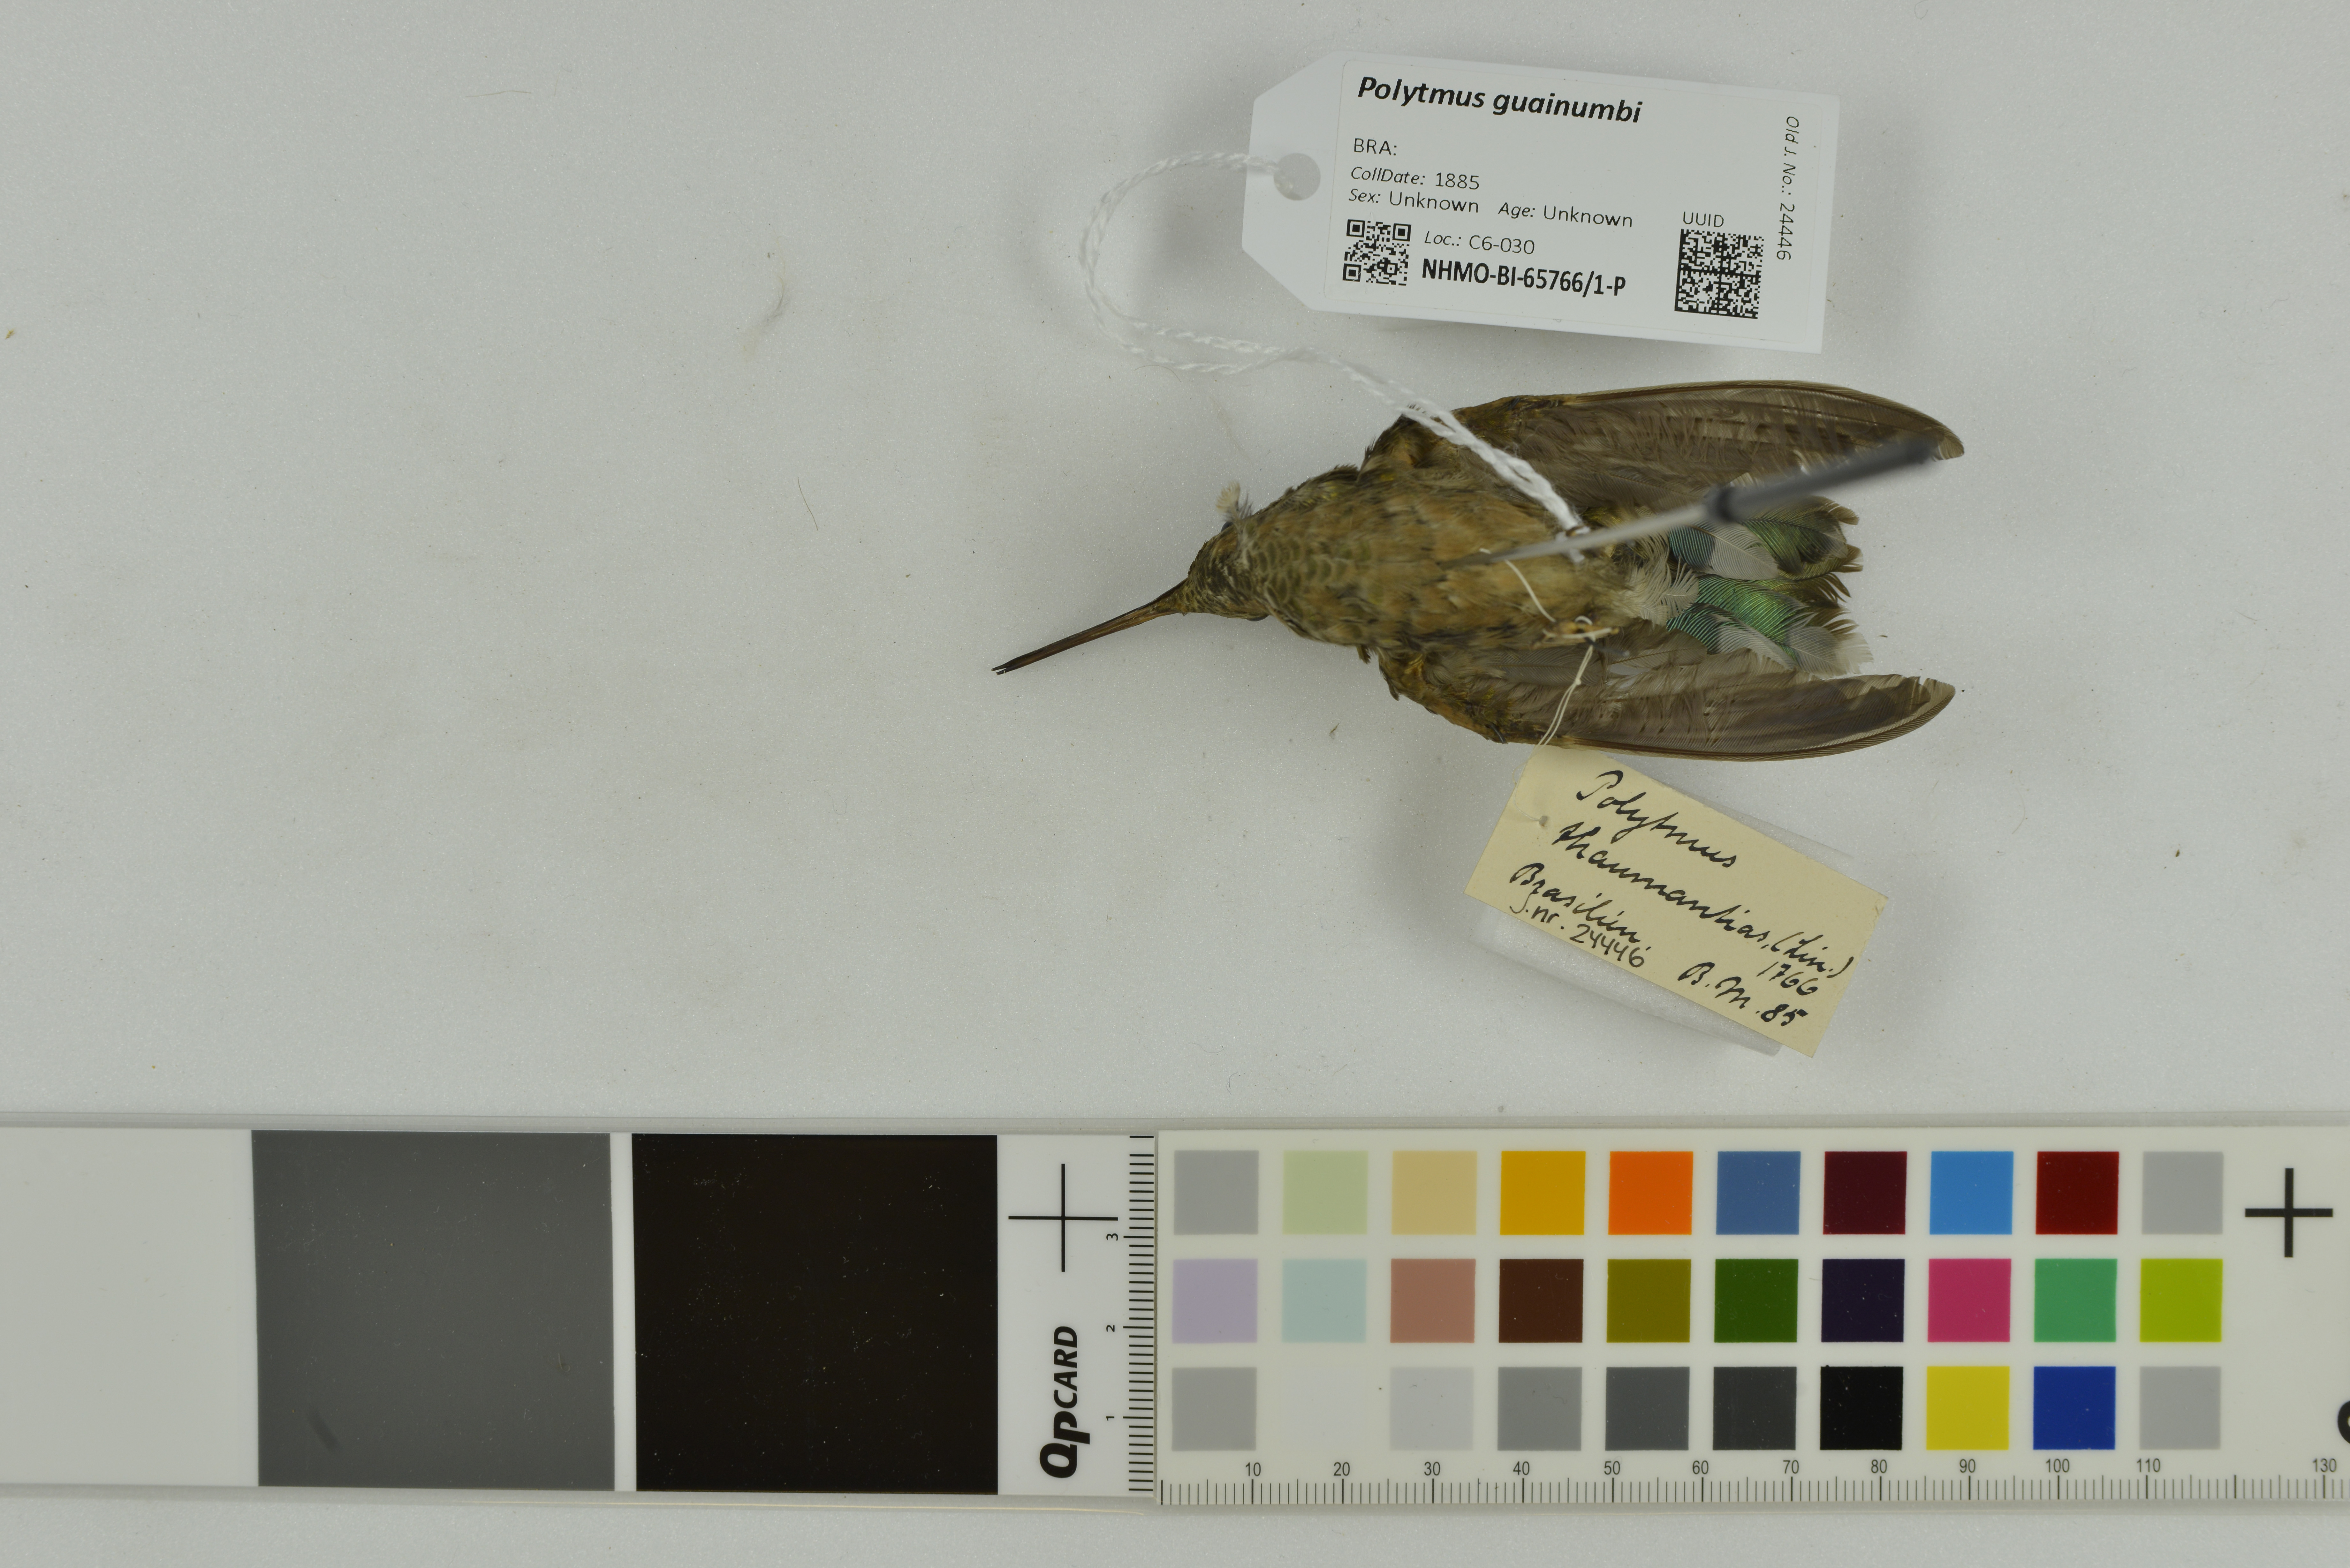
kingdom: Animalia
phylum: Chordata
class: Aves
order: Apodiformes
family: Trochilidae
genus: Polytmus
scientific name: Polytmus guainumbi
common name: White-tailed goldenthroat
